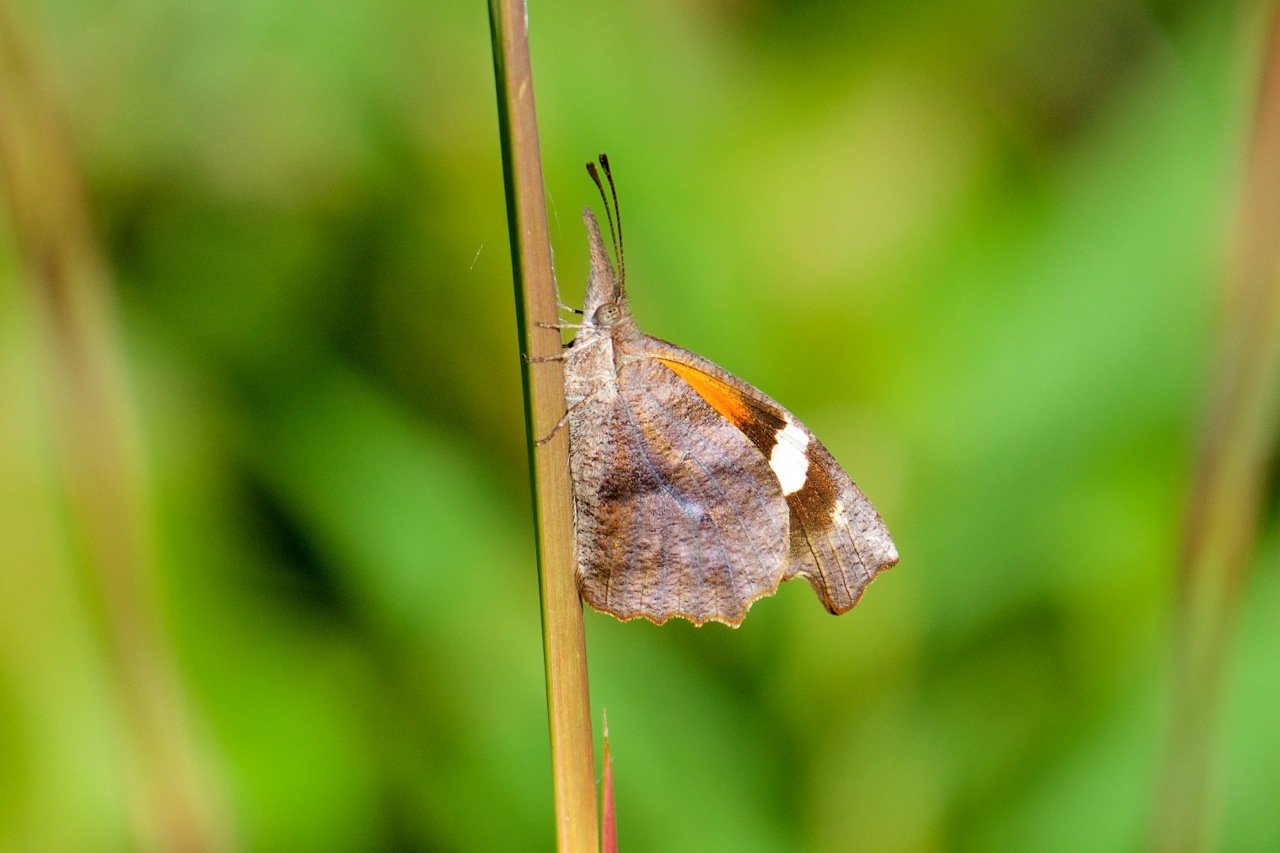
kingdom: Animalia
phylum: Arthropoda
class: Insecta
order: Lepidoptera
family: Nymphalidae
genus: Libytheana
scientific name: Libytheana carinenta
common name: American Snout
